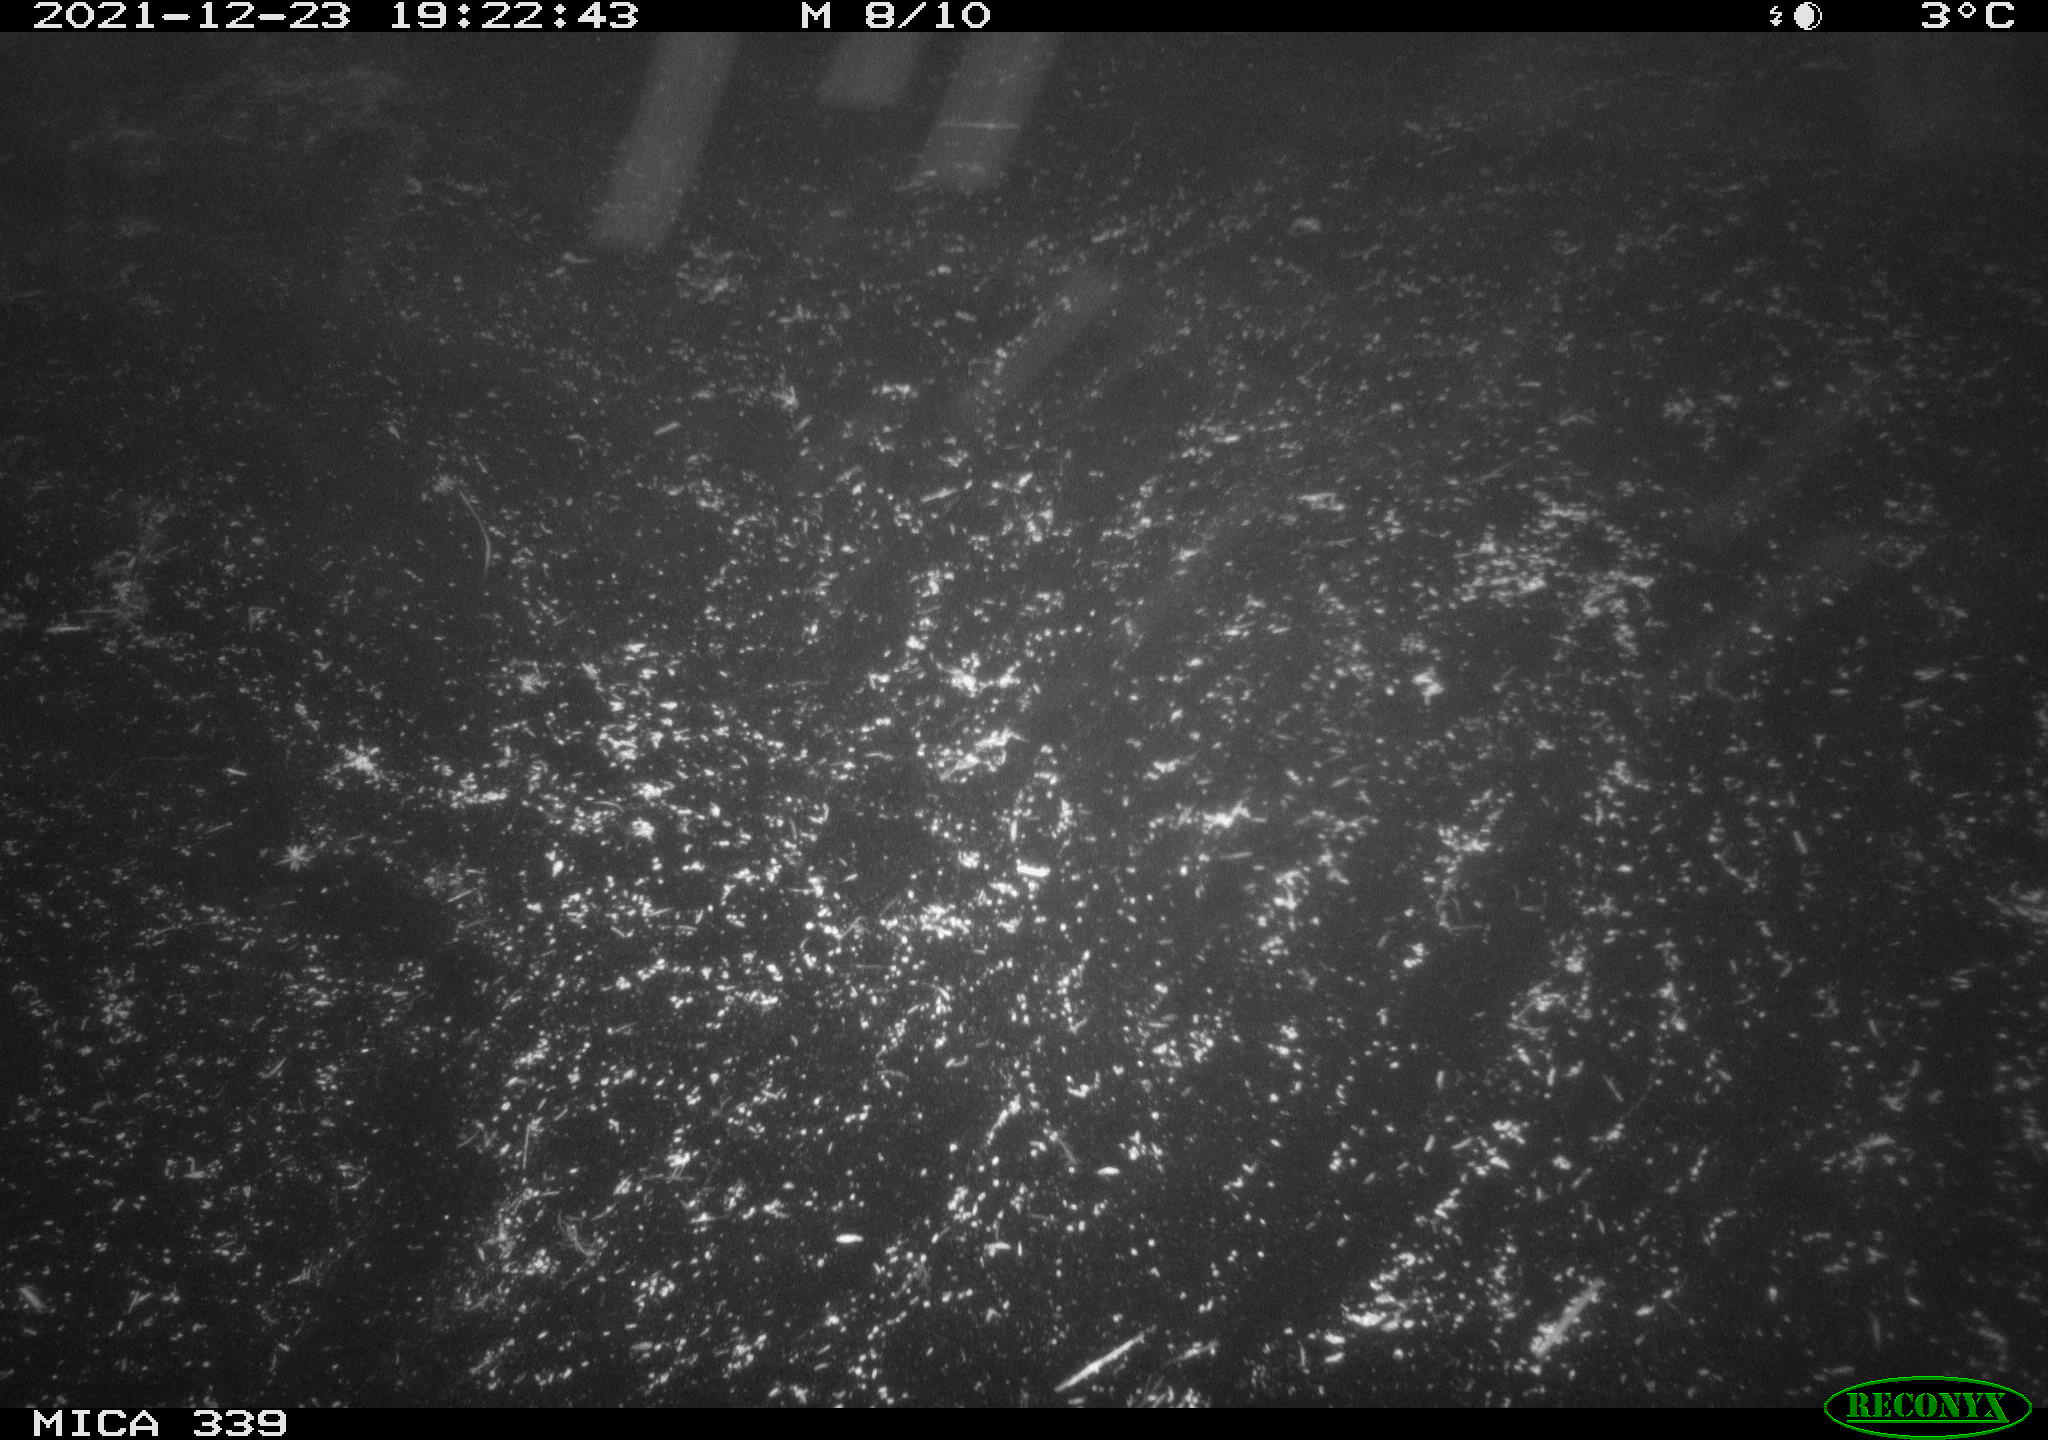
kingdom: Animalia
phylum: Chordata
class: Aves
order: Gruiformes
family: Rallidae
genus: Gallinula
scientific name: Gallinula chloropus
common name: Common moorhen
